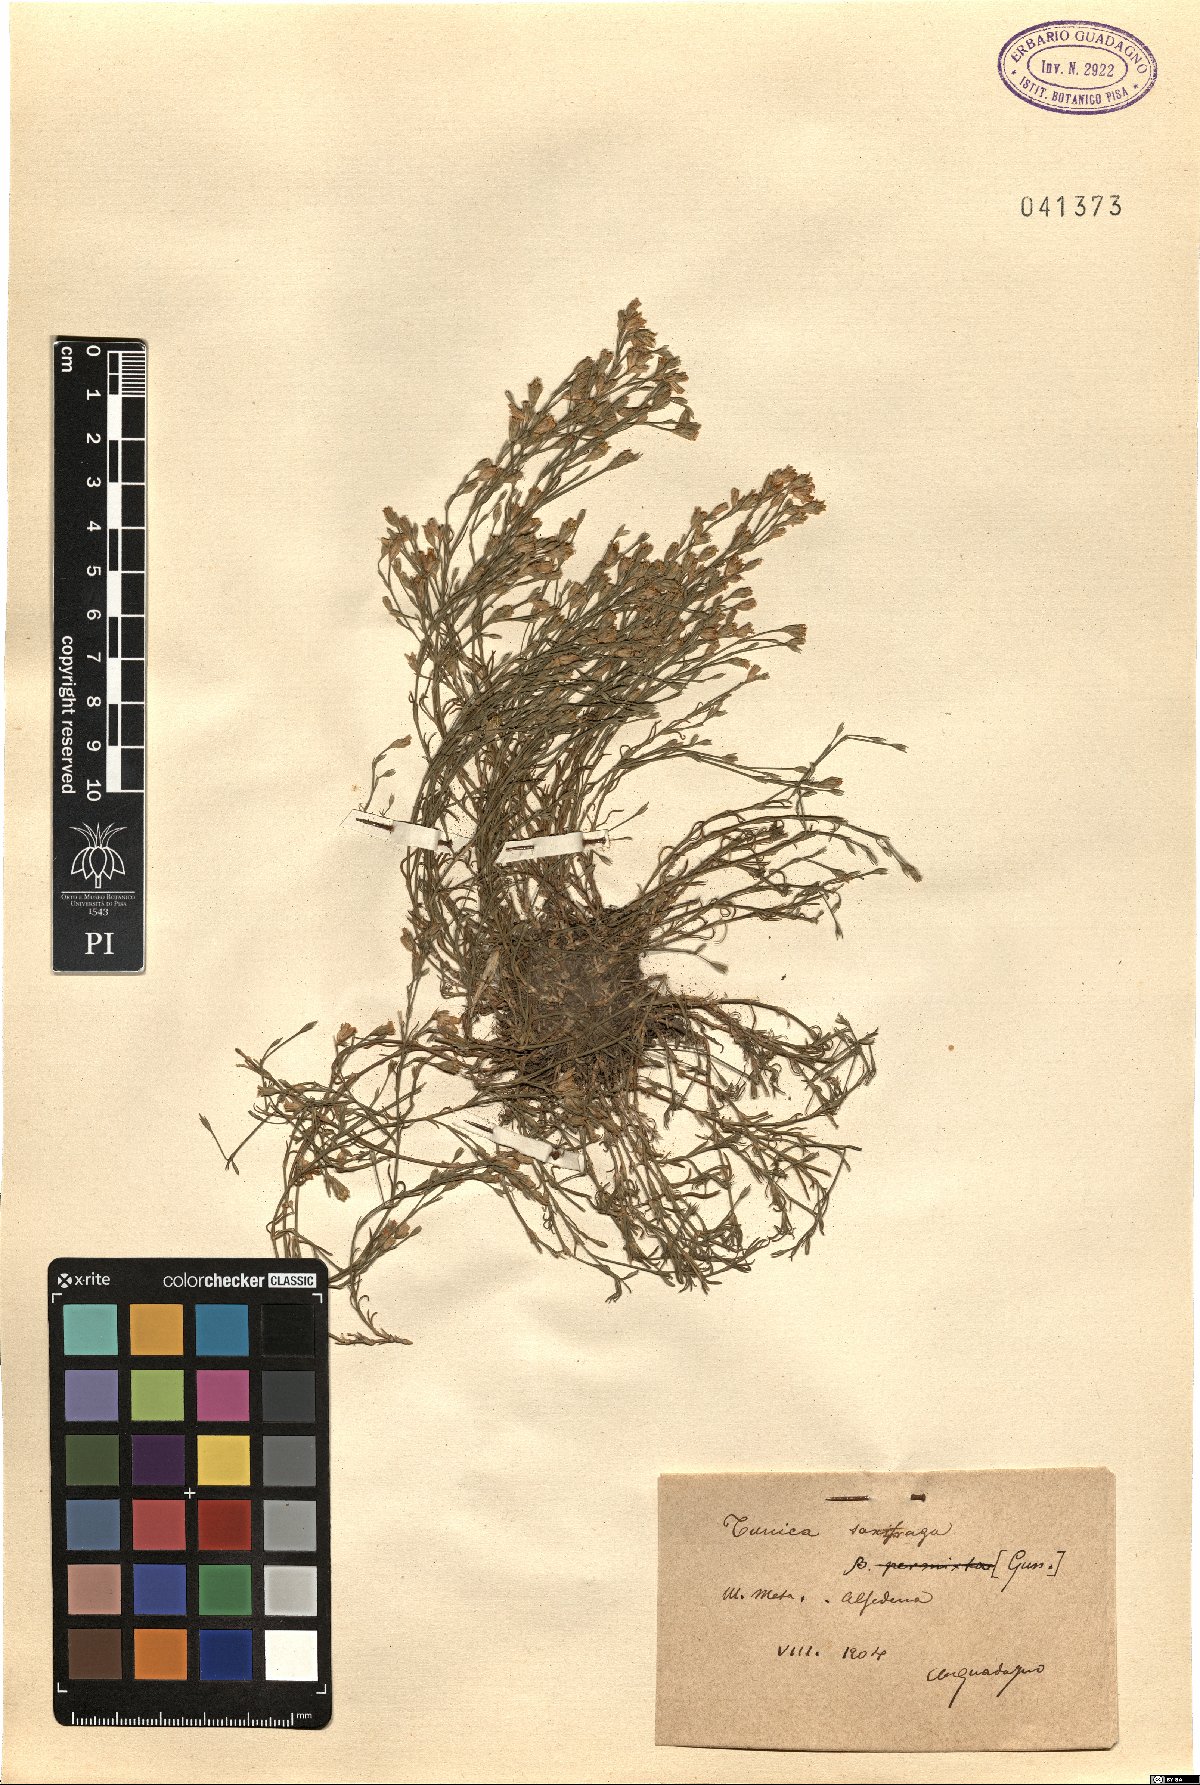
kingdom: Plantae
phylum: Tracheophyta
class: Magnoliopsida
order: Caryophyllales
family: Caryophyllaceae
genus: Petrorhagia
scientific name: Petrorhagia saxifraga
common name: Tunicflower
